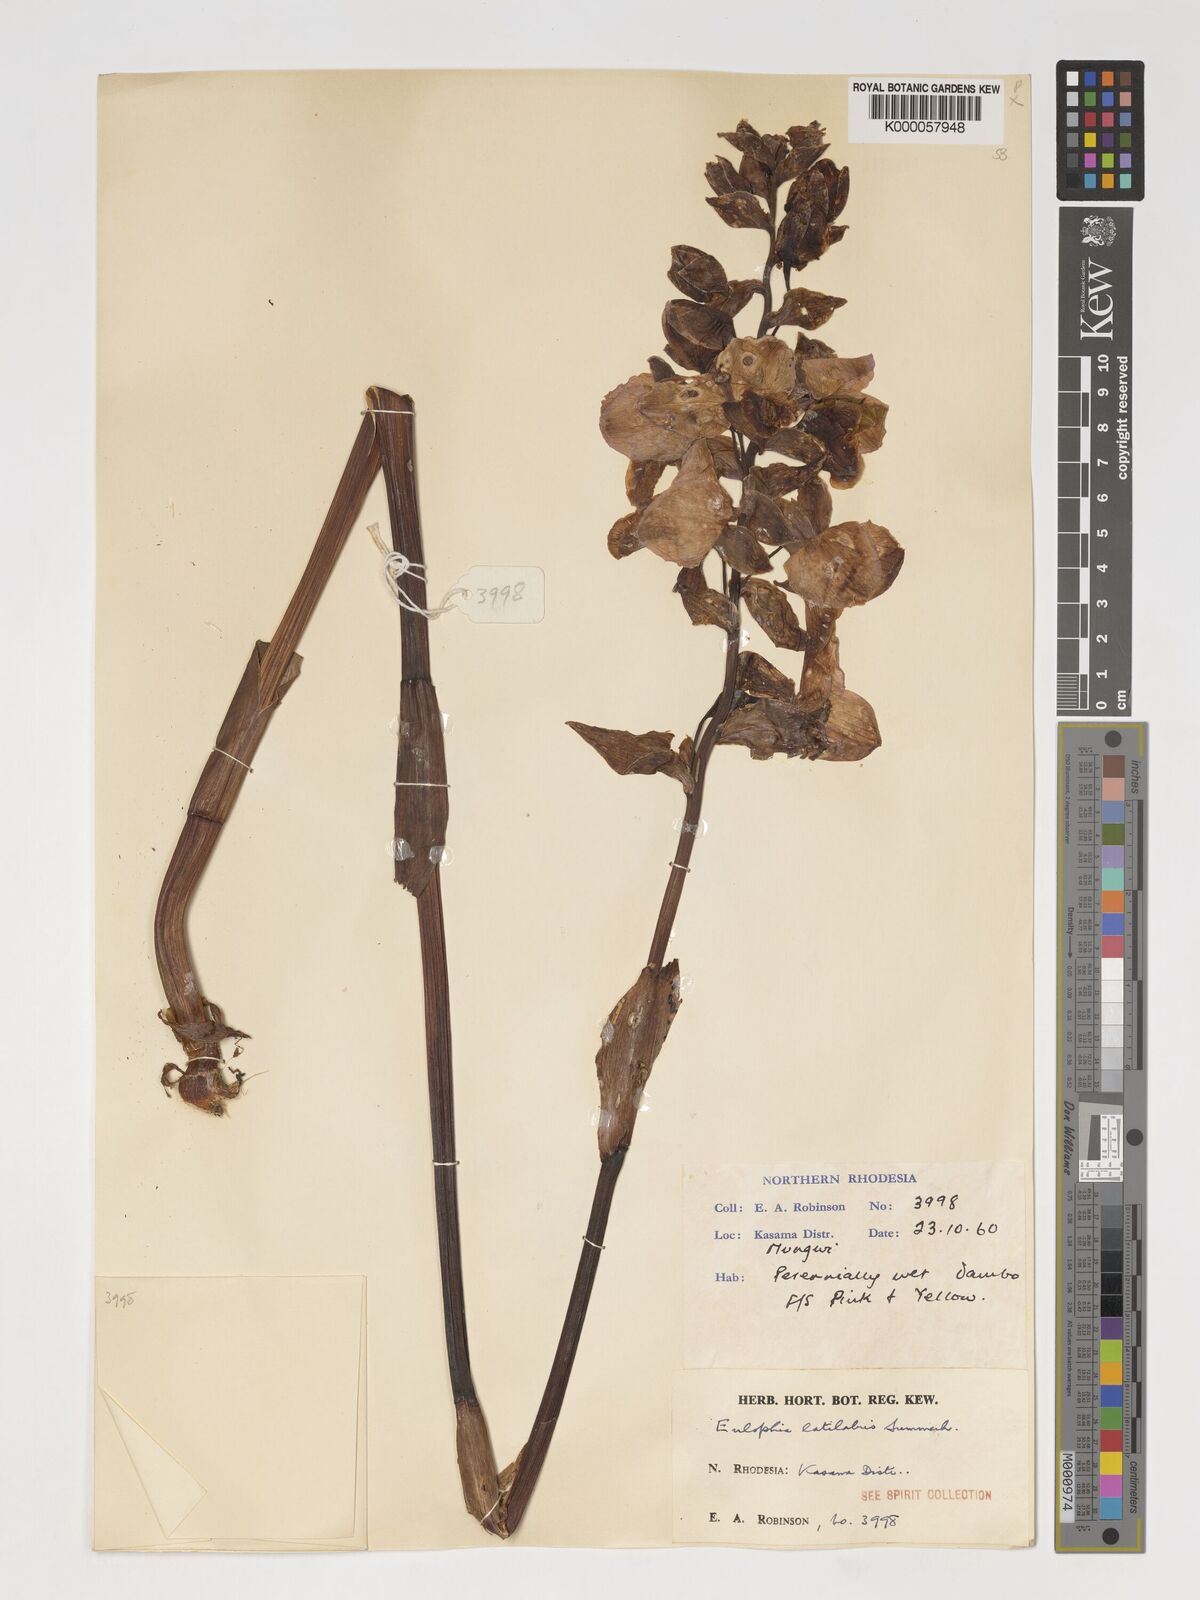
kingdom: Plantae
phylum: Tracheophyta
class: Liliopsida
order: Asparagales
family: Orchidaceae
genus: Eulophia
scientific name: Eulophia latilabris
